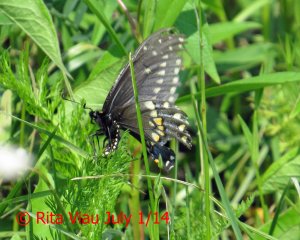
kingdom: Animalia
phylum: Arthropoda
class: Insecta
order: Lepidoptera
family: Papilionidae
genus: Papilio
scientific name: Papilio polyxenes
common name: Black Swallowtail
